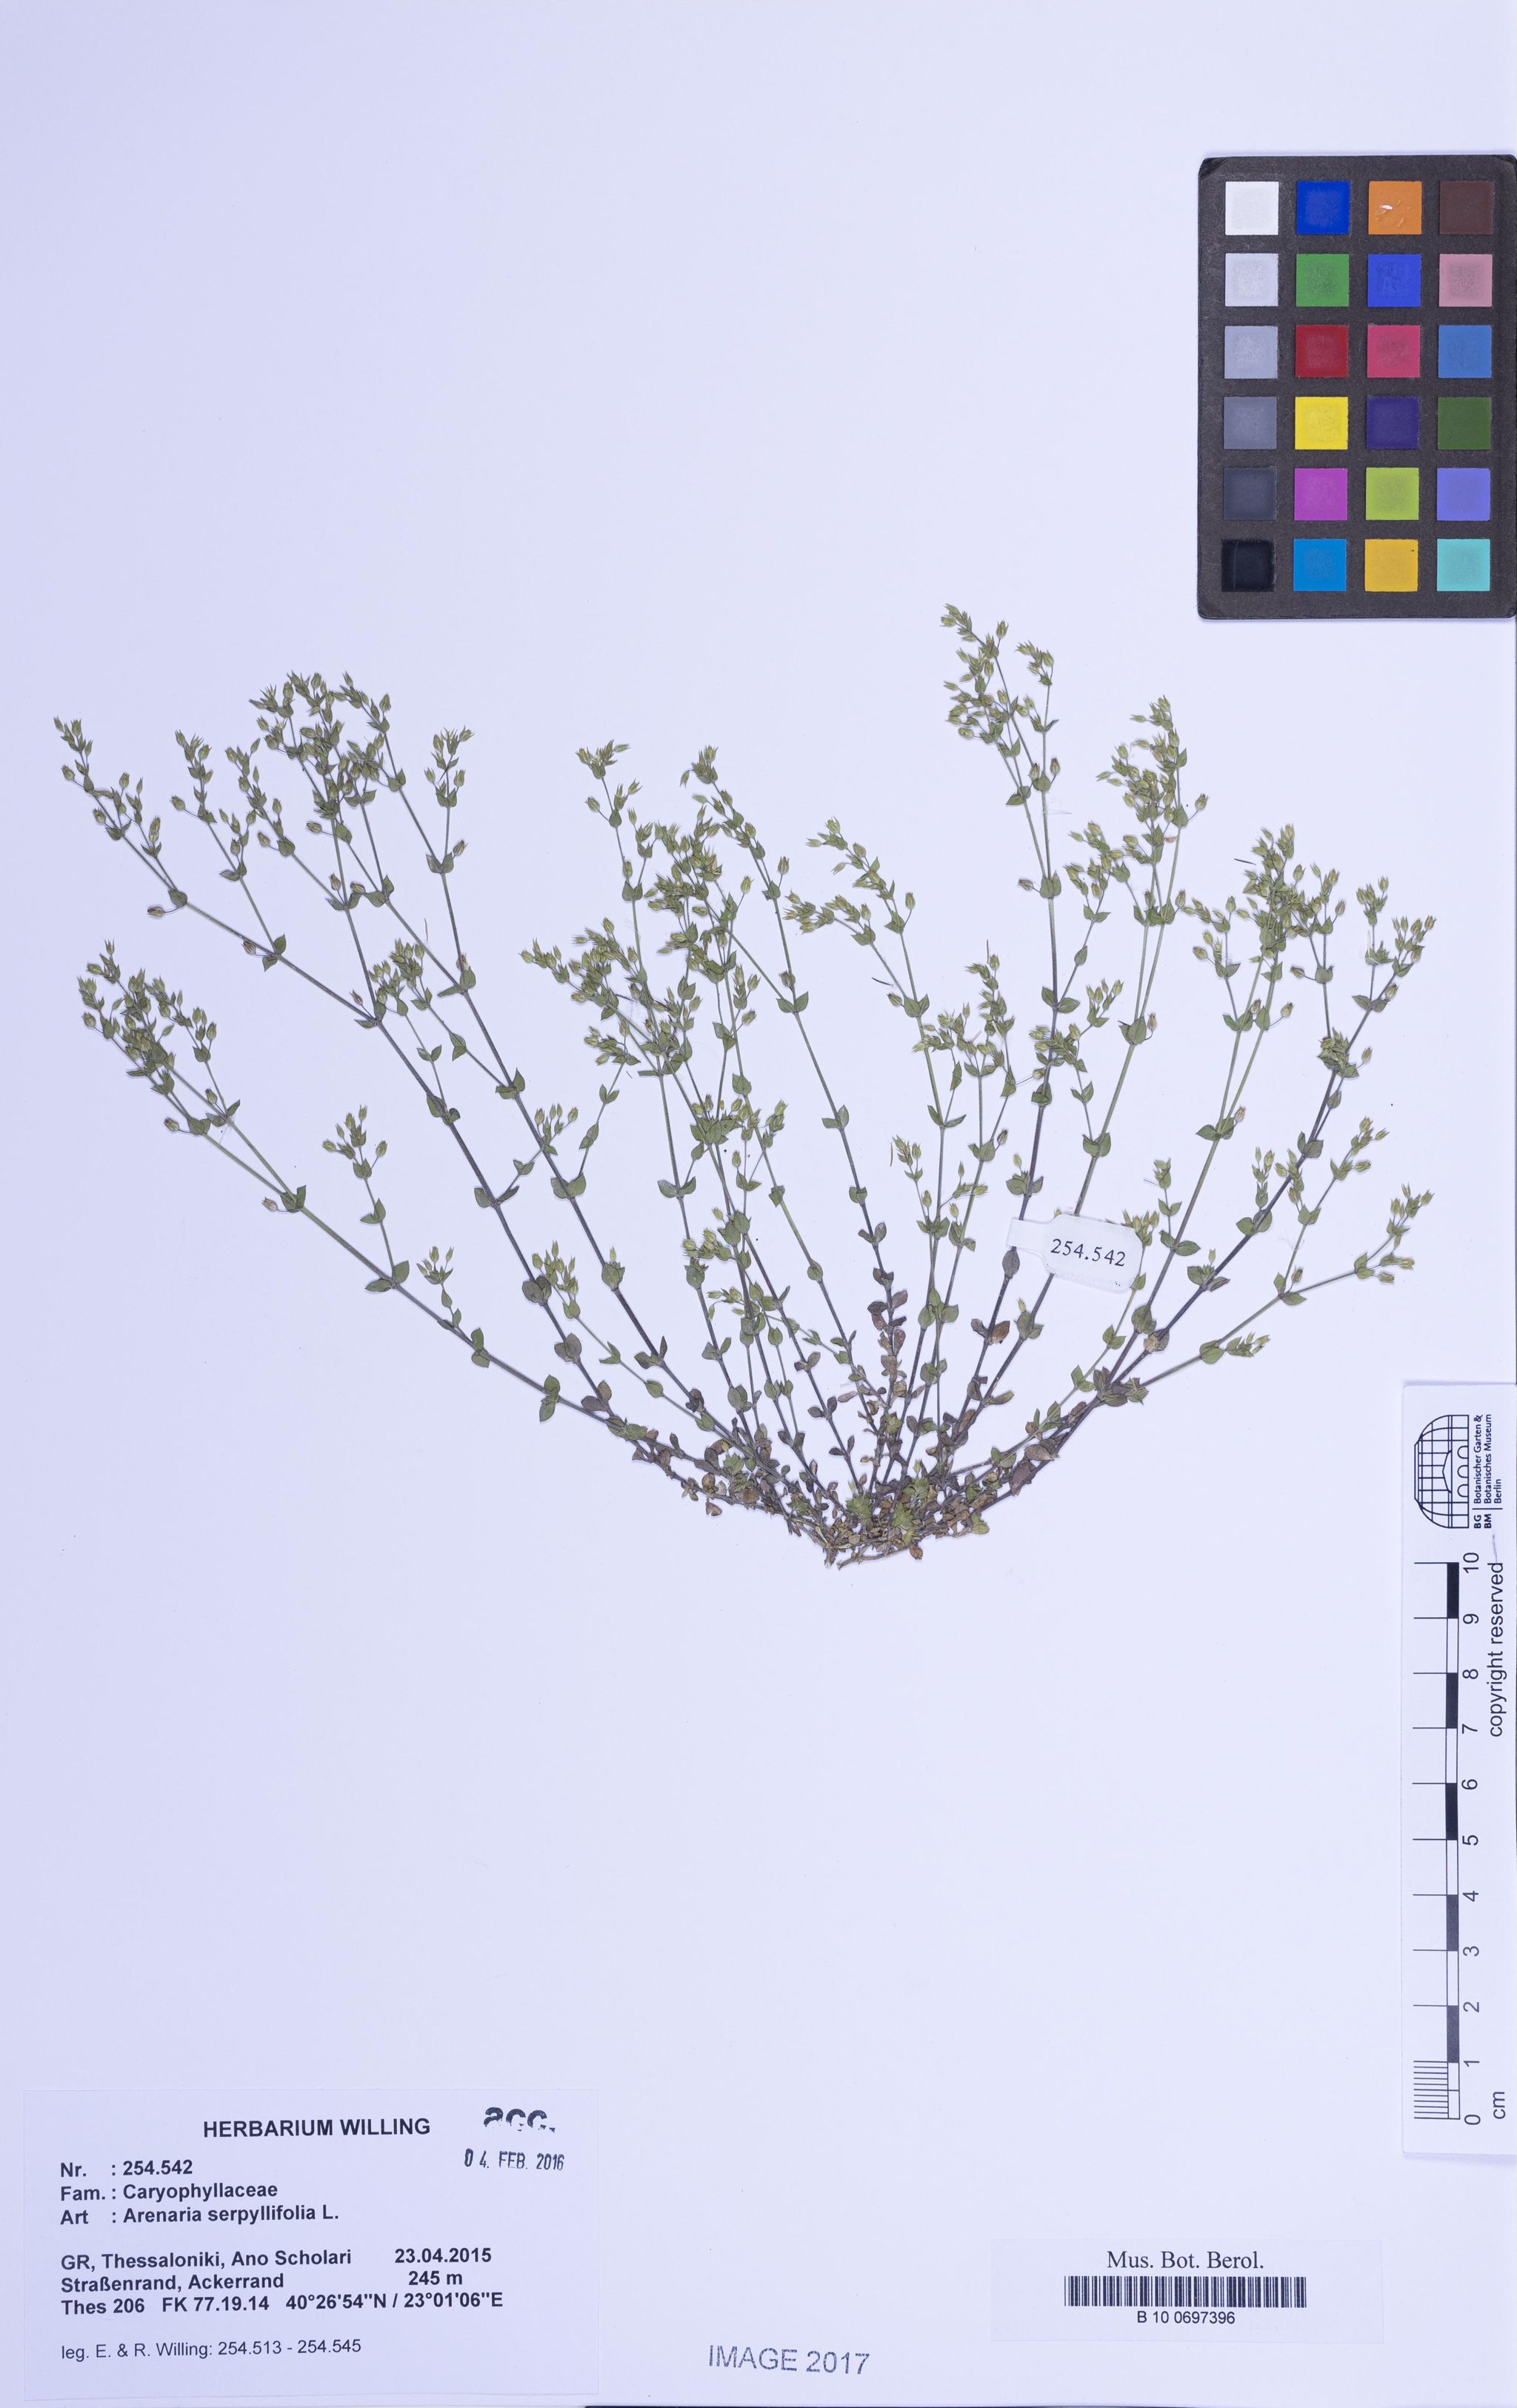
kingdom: Plantae
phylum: Tracheophyta
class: Magnoliopsida
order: Caryophyllales
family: Caryophyllaceae
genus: Arenaria
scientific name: Arenaria serpyllifolia
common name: Thyme-leaved sandwort
